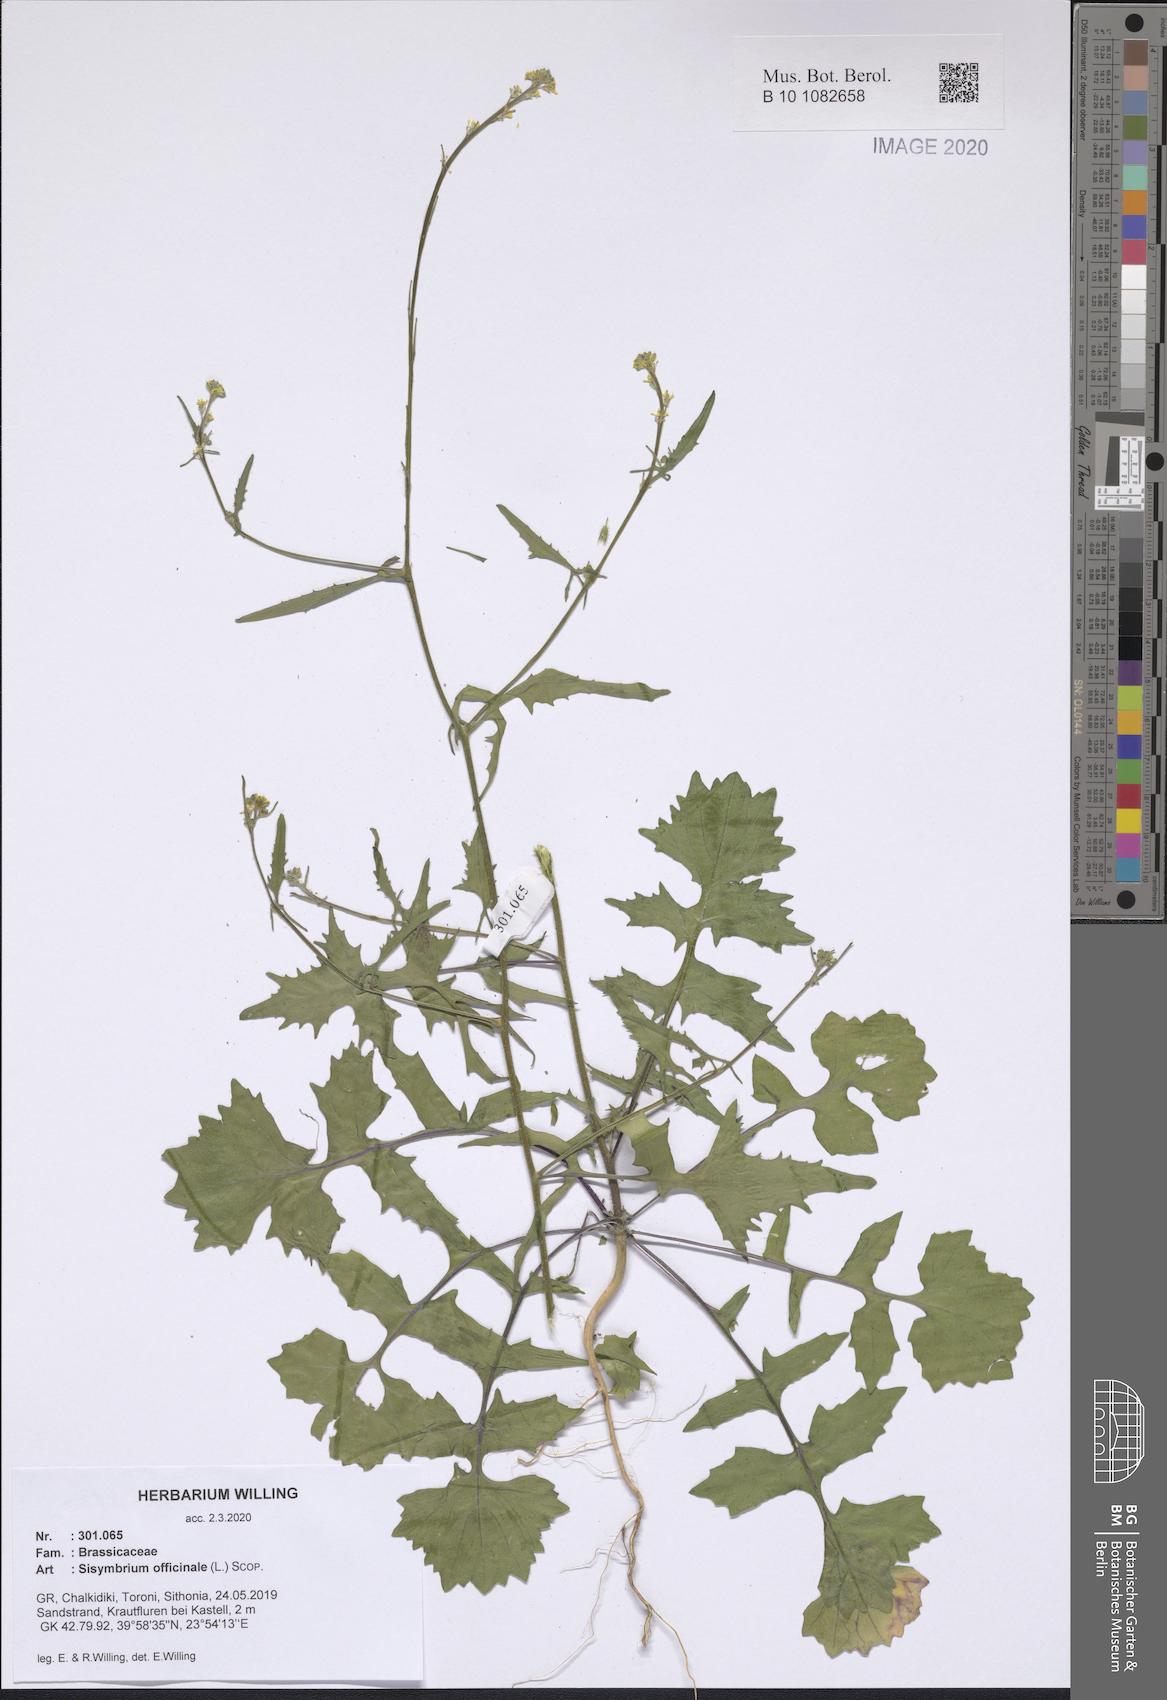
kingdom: Plantae
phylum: Tracheophyta
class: Magnoliopsida
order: Brassicales
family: Brassicaceae
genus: Sisymbrium
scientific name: Sisymbrium officinale
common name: Hedge mustard
